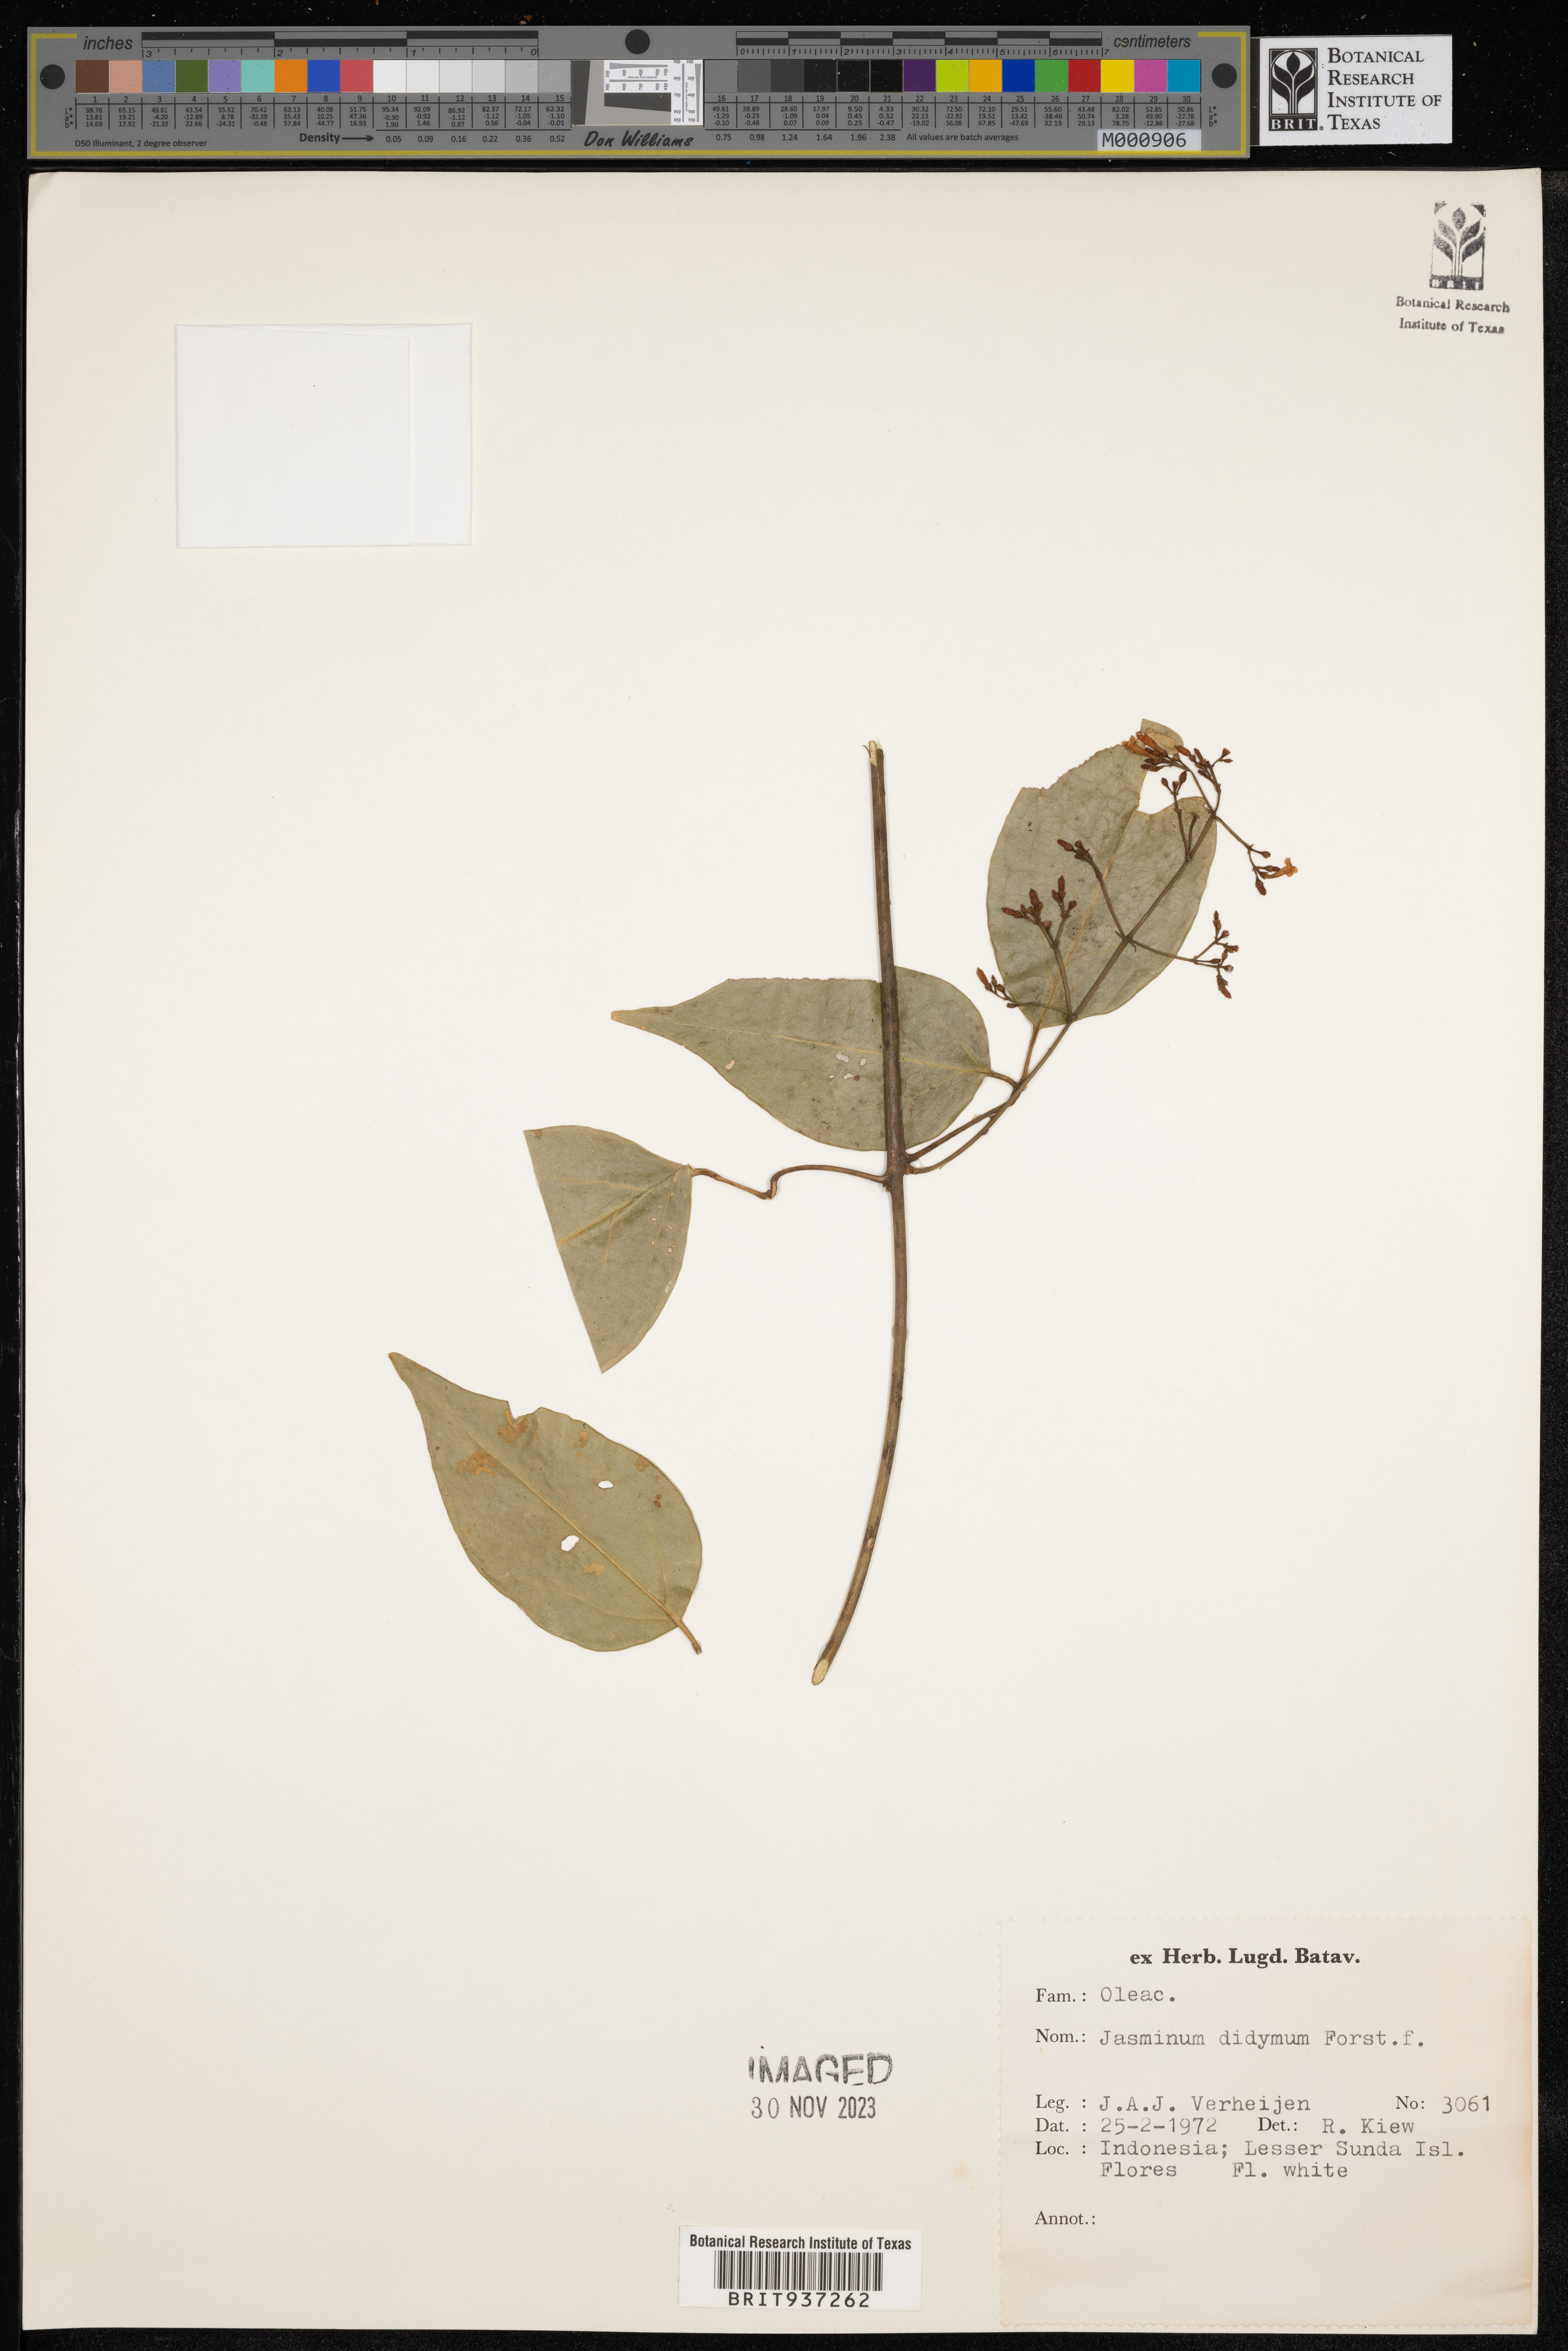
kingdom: Plantae
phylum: Tracheophyta
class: Magnoliopsida
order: Lamiales
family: Oleaceae
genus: Jasminum
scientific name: Jasminum
